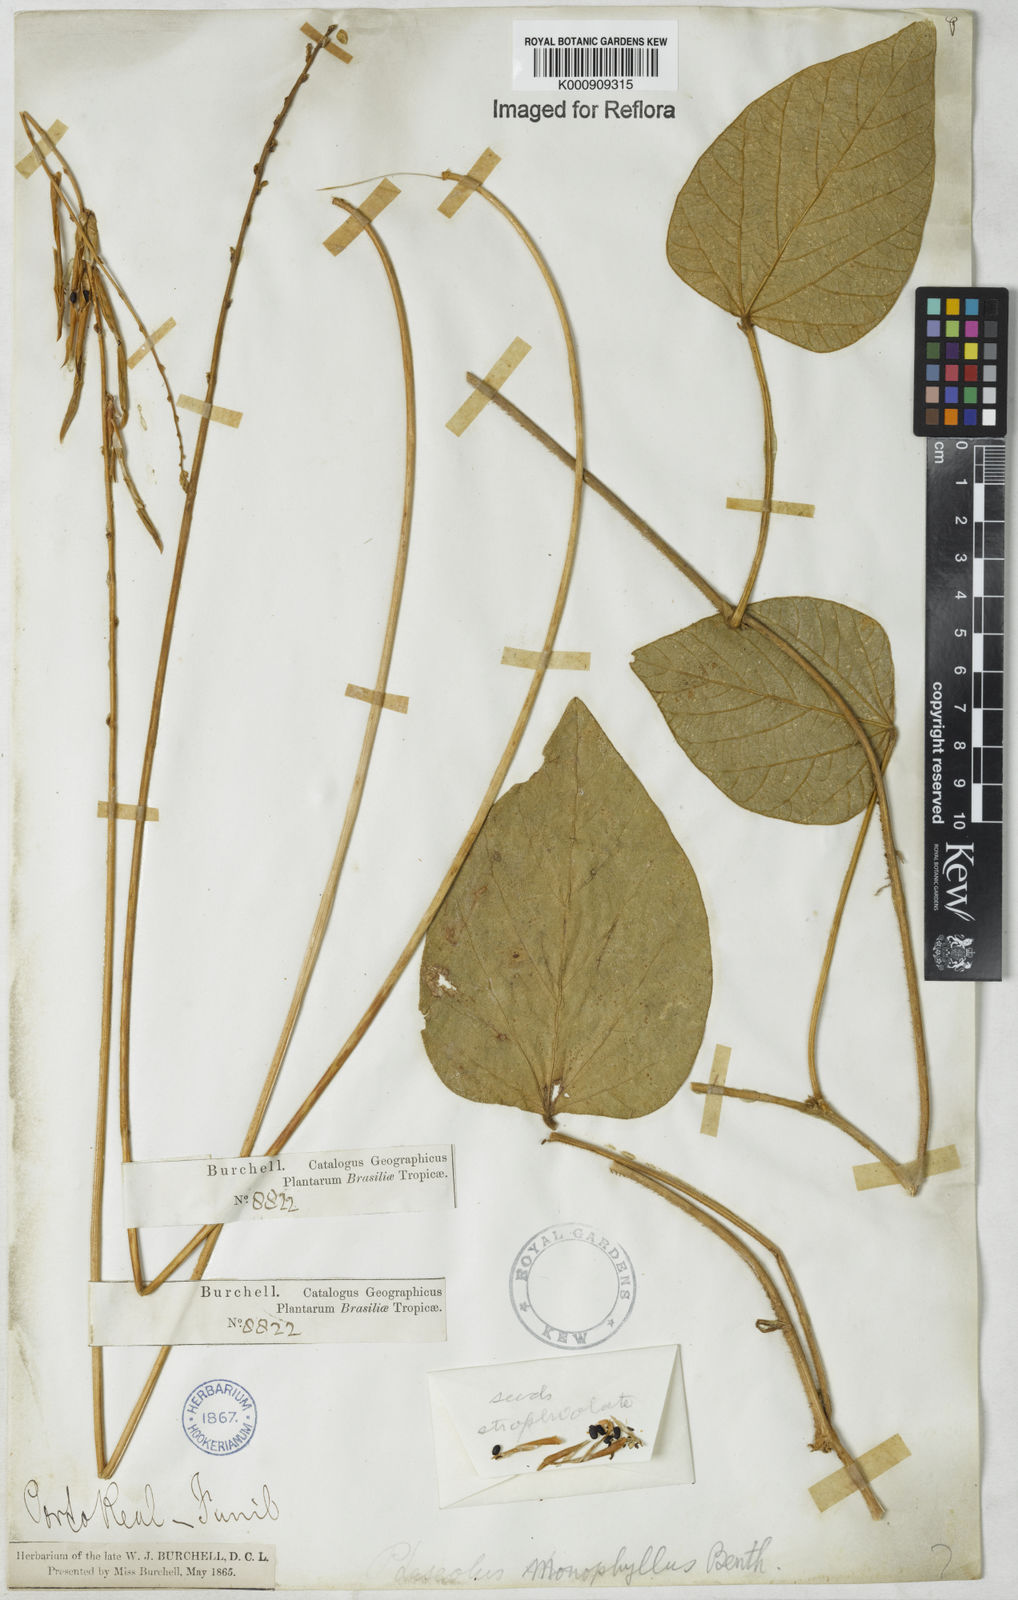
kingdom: Plantae
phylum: Tracheophyta
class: Magnoliopsida
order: Fabales
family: Fabaceae
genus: Macroptilium
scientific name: Macroptilium monophyllum
